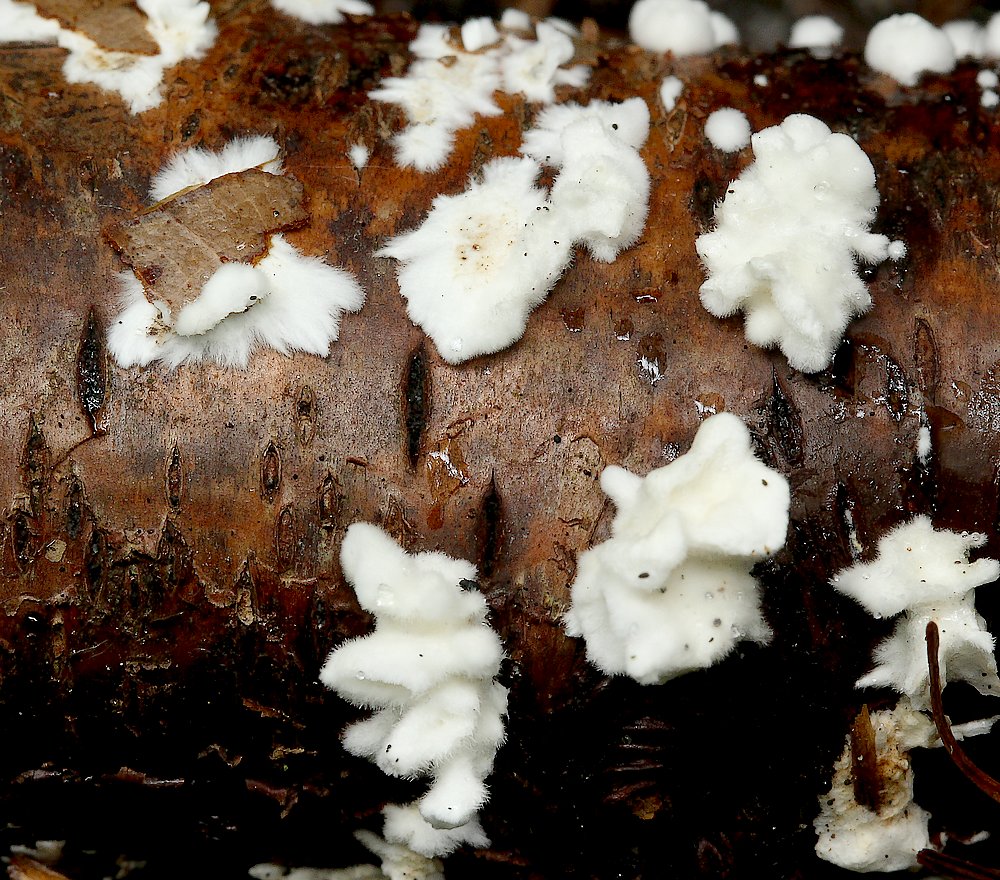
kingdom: Fungi
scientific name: Fungi
